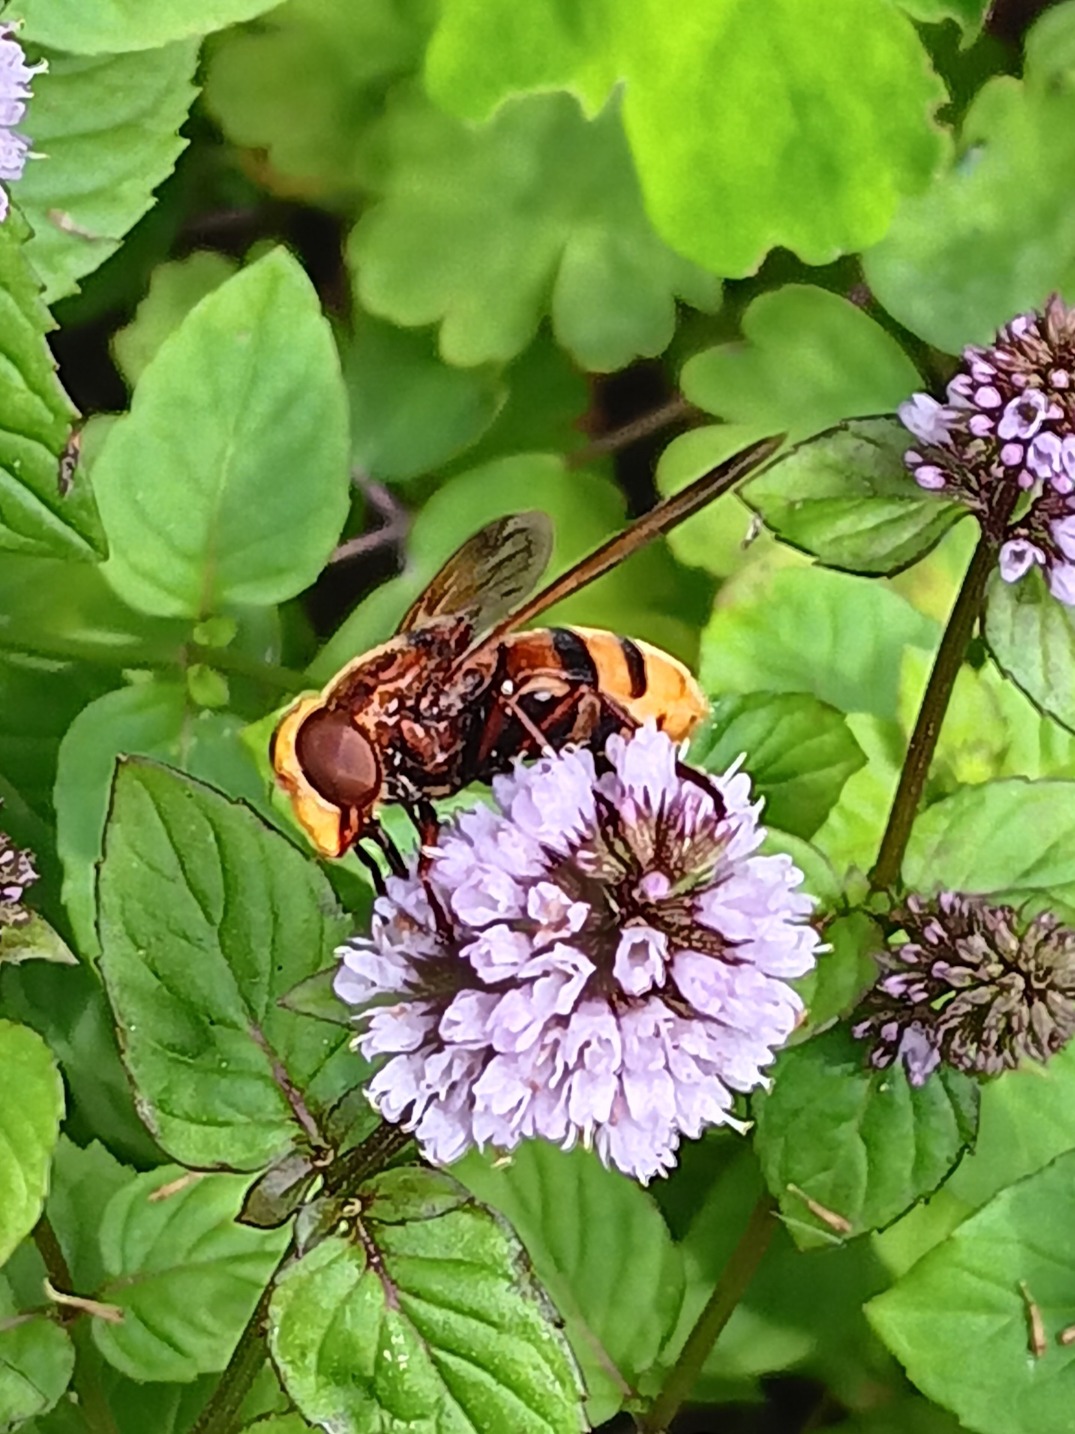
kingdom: Animalia
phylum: Arthropoda
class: Insecta
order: Diptera
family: Syrphidae
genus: Volucella
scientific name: Volucella zonaria
